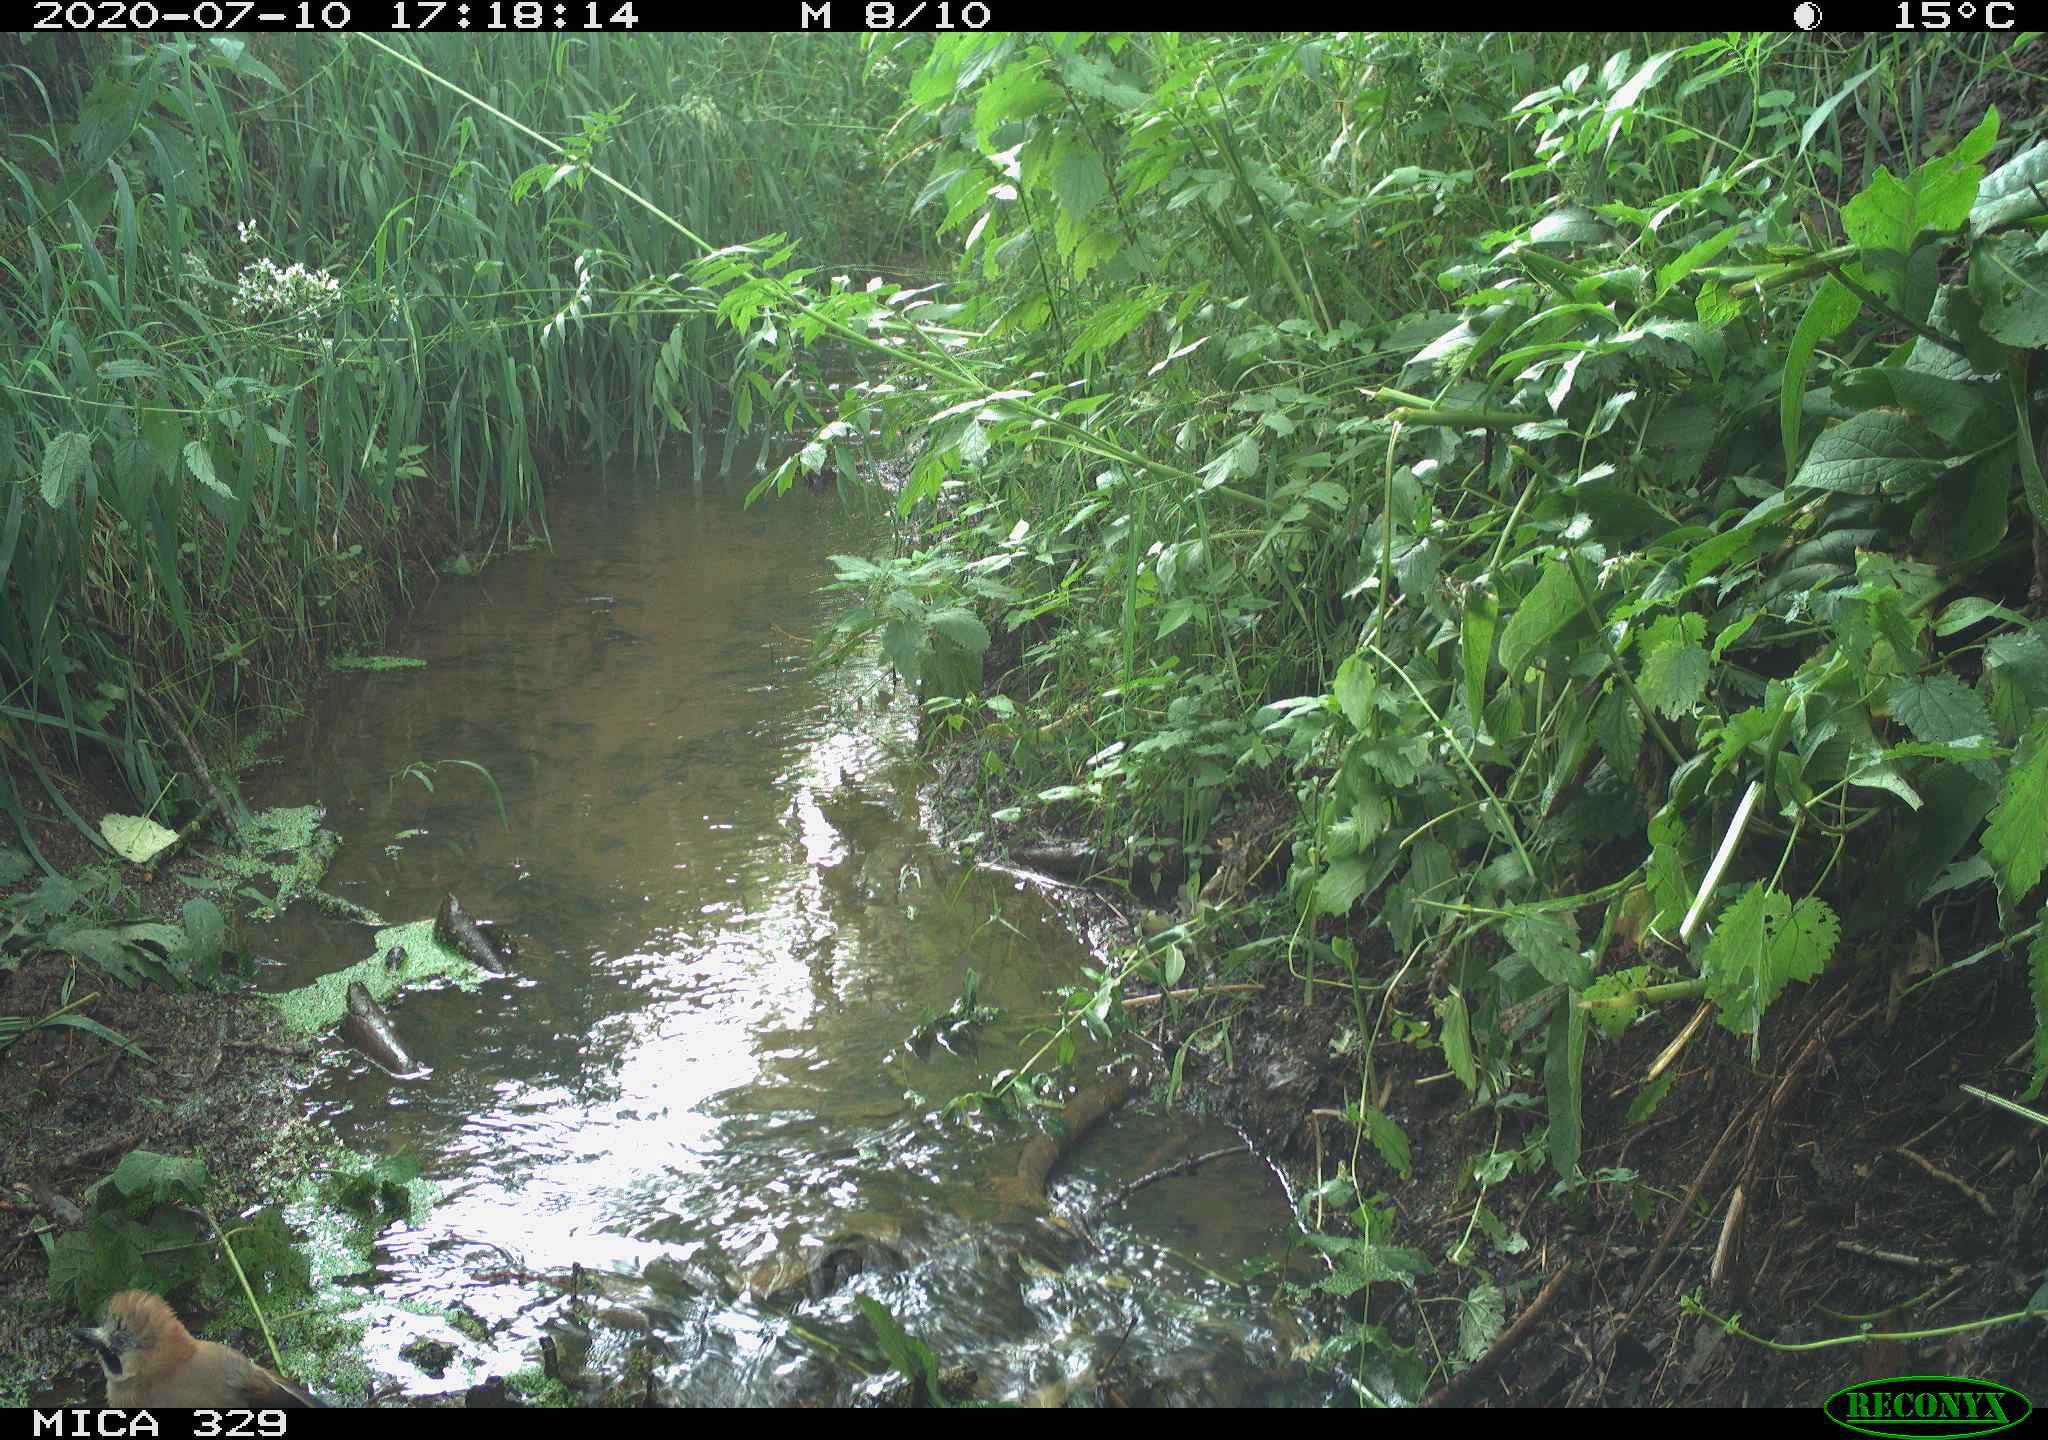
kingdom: Animalia
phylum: Chordata
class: Aves
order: Passeriformes
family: Corvidae
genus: Garrulus
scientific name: Garrulus glandarius
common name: Eurasian jay
